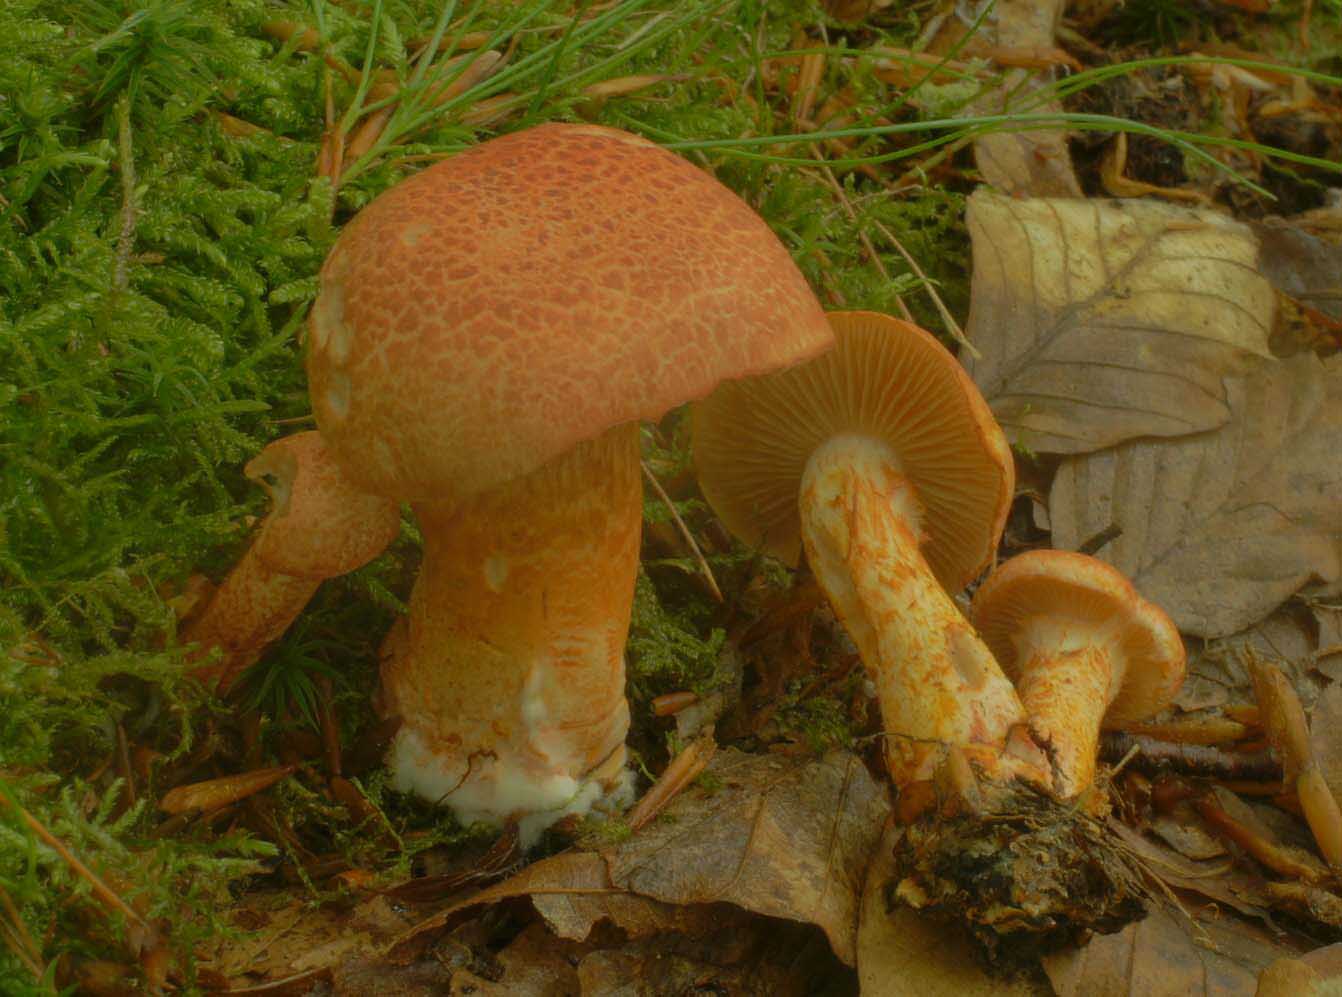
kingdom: Fungi
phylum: Basidiomycota
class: Agaricomycetes
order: Agaricales
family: Cortinariaceae
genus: Cortinarius
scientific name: Cortinarius bolaris
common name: cinnoberskællet slørhat
